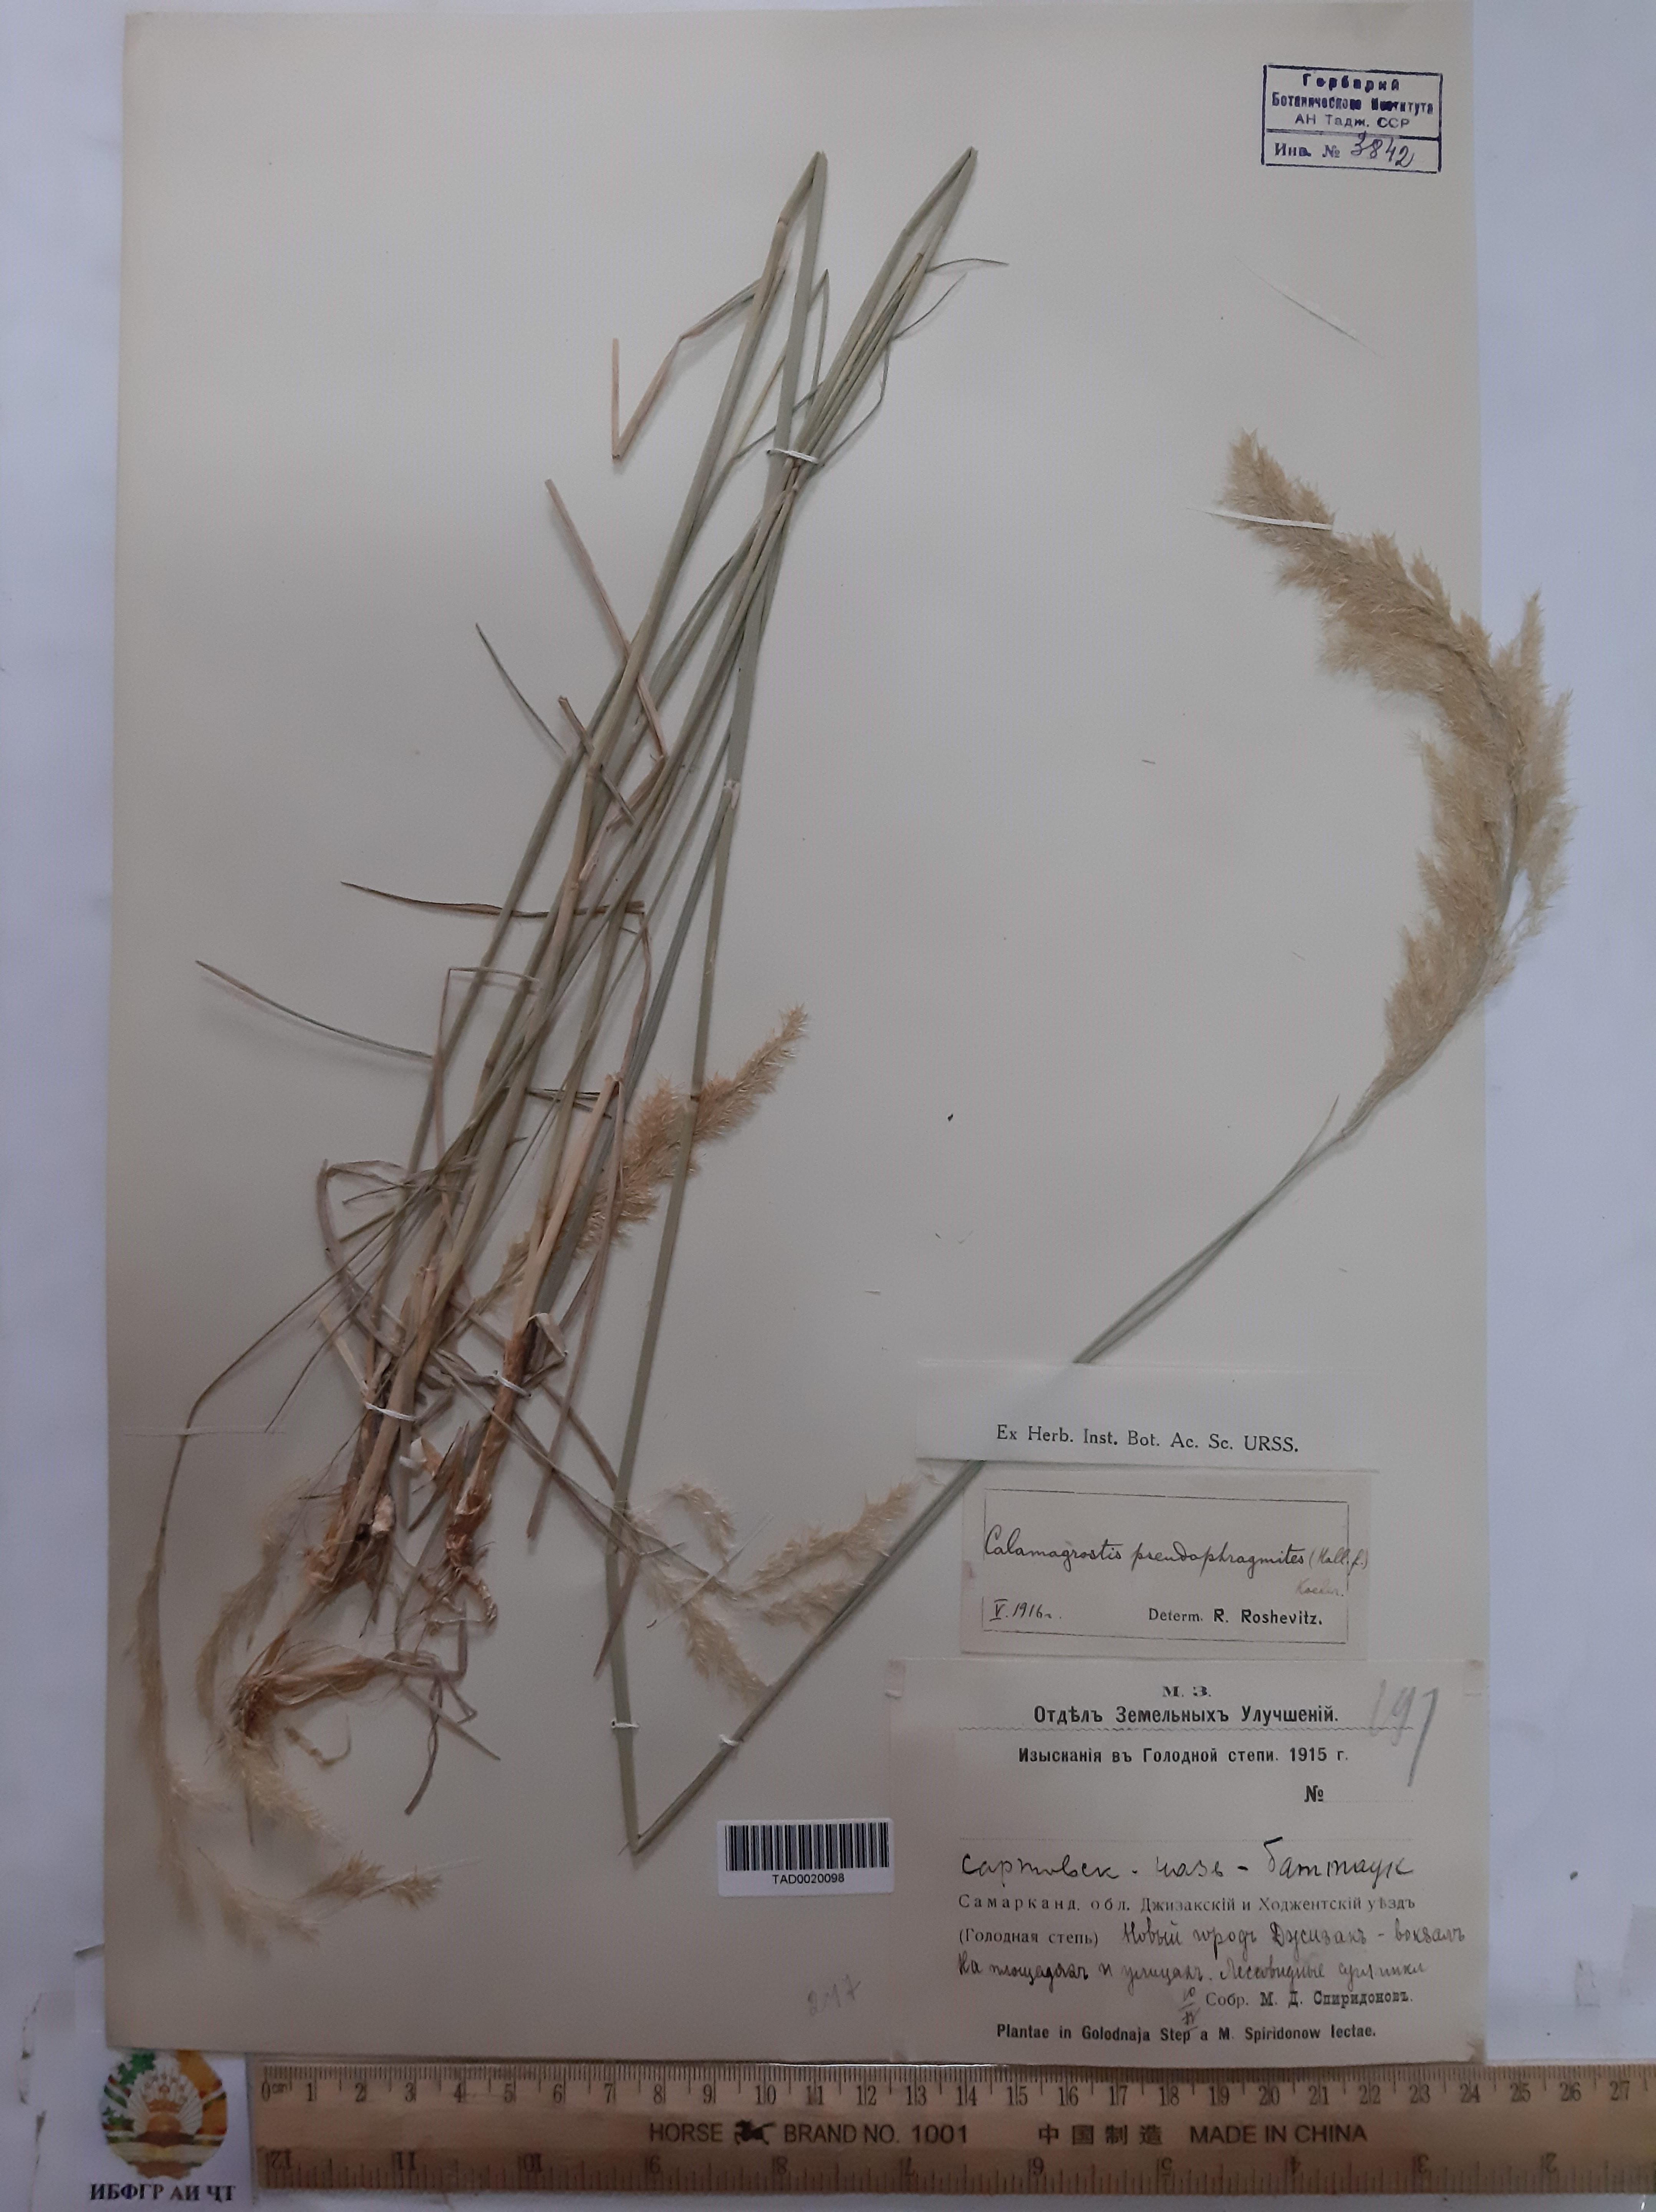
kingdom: Plantae
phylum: Tracheophyta
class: Liliopsida
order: Poales
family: Poaceae
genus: Calamagrostis
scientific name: Calamagrostis pseudophragmites
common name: Coastal small-reed
